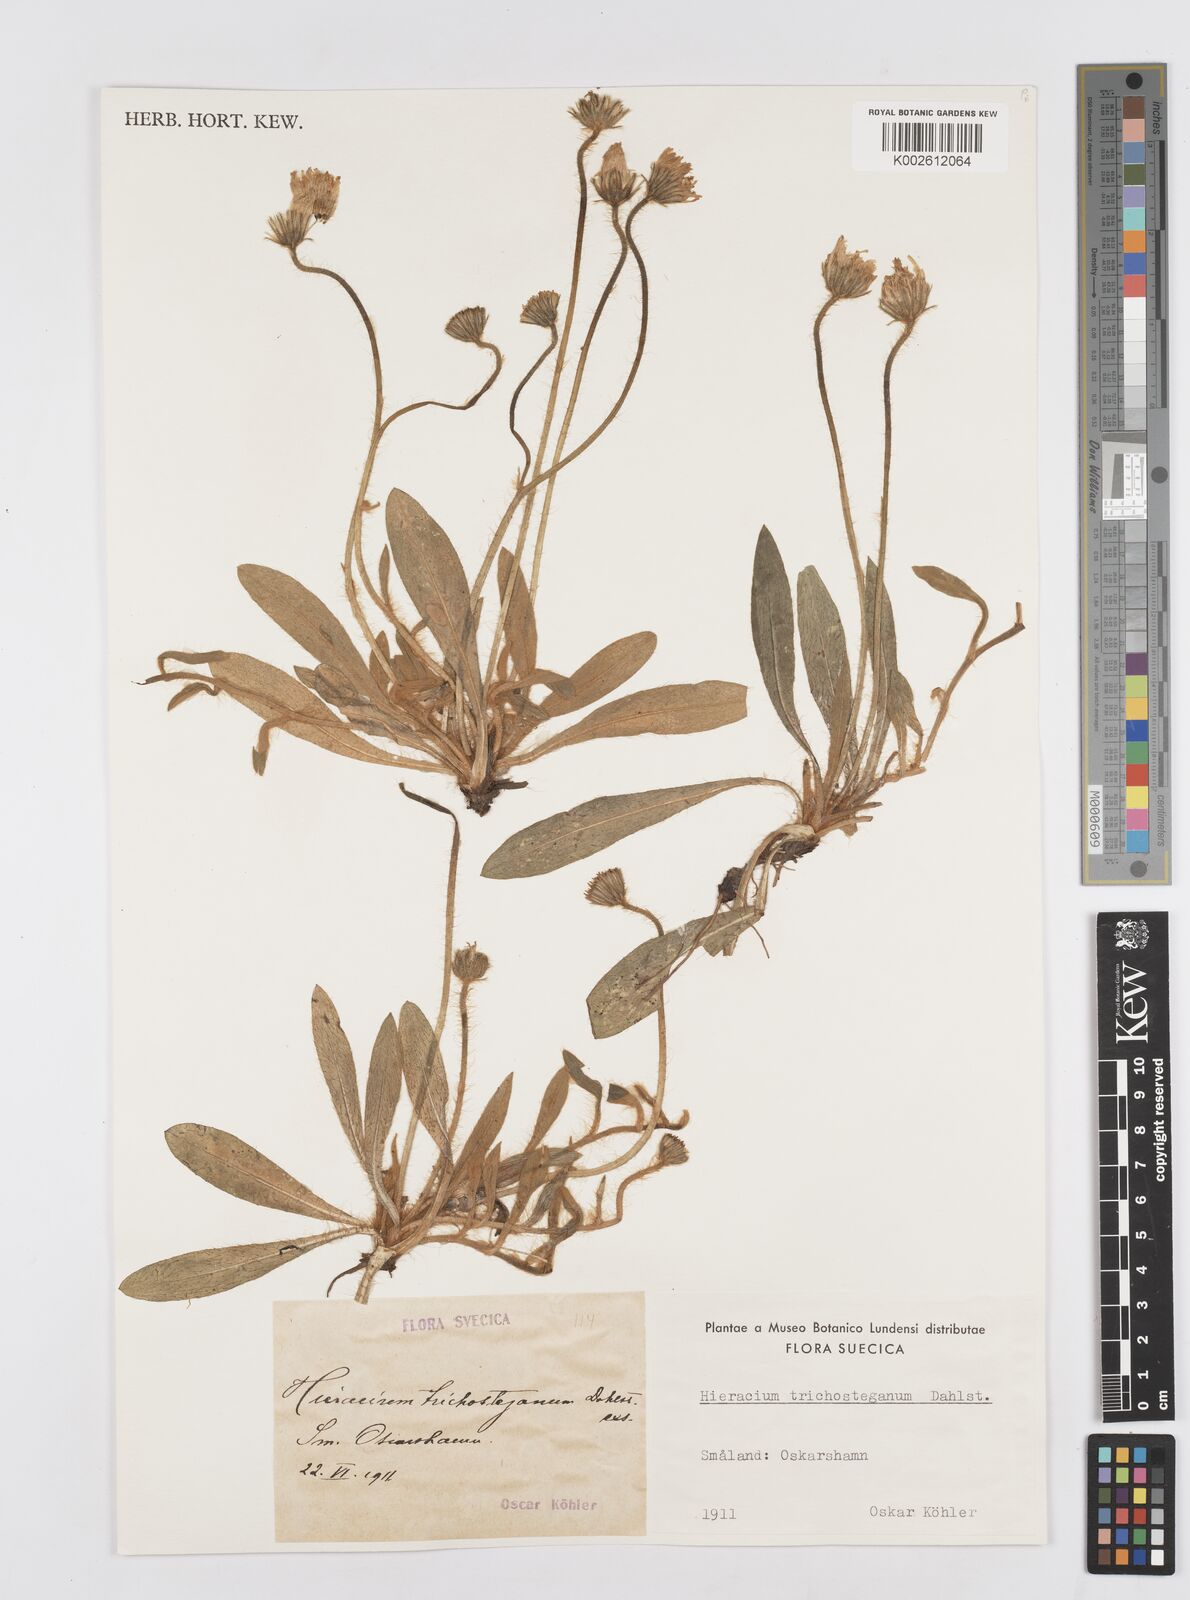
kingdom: Plantae
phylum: Tracheophyta
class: Magnoliopsida
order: Asterales
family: Asteraceae
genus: Hieracium
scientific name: Hieracium
